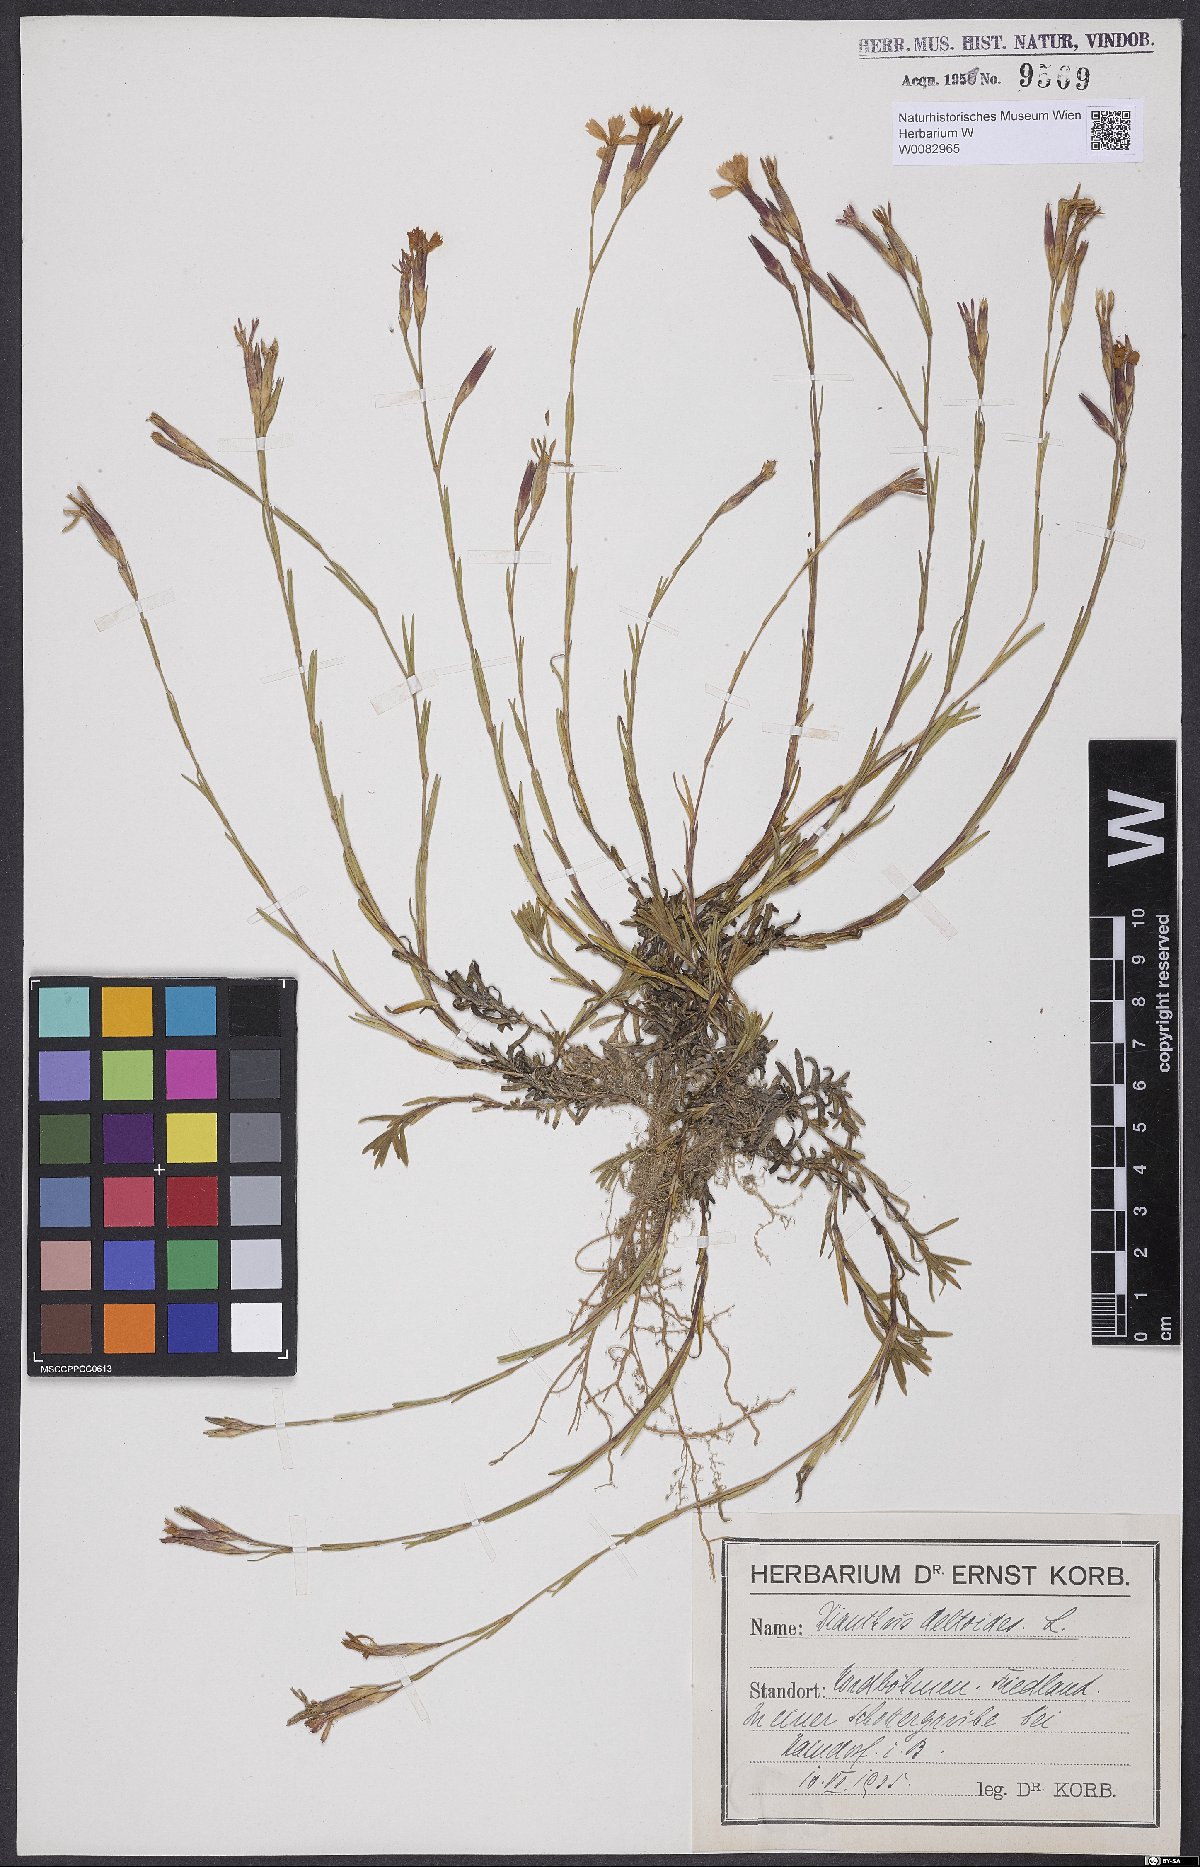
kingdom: Plantae
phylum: Tracheophyta
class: Magnoliopsida
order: Caryophyllales
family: Caryophyllaceae
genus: Dianthus
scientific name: Dianthus deltoides
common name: Maiden pink
